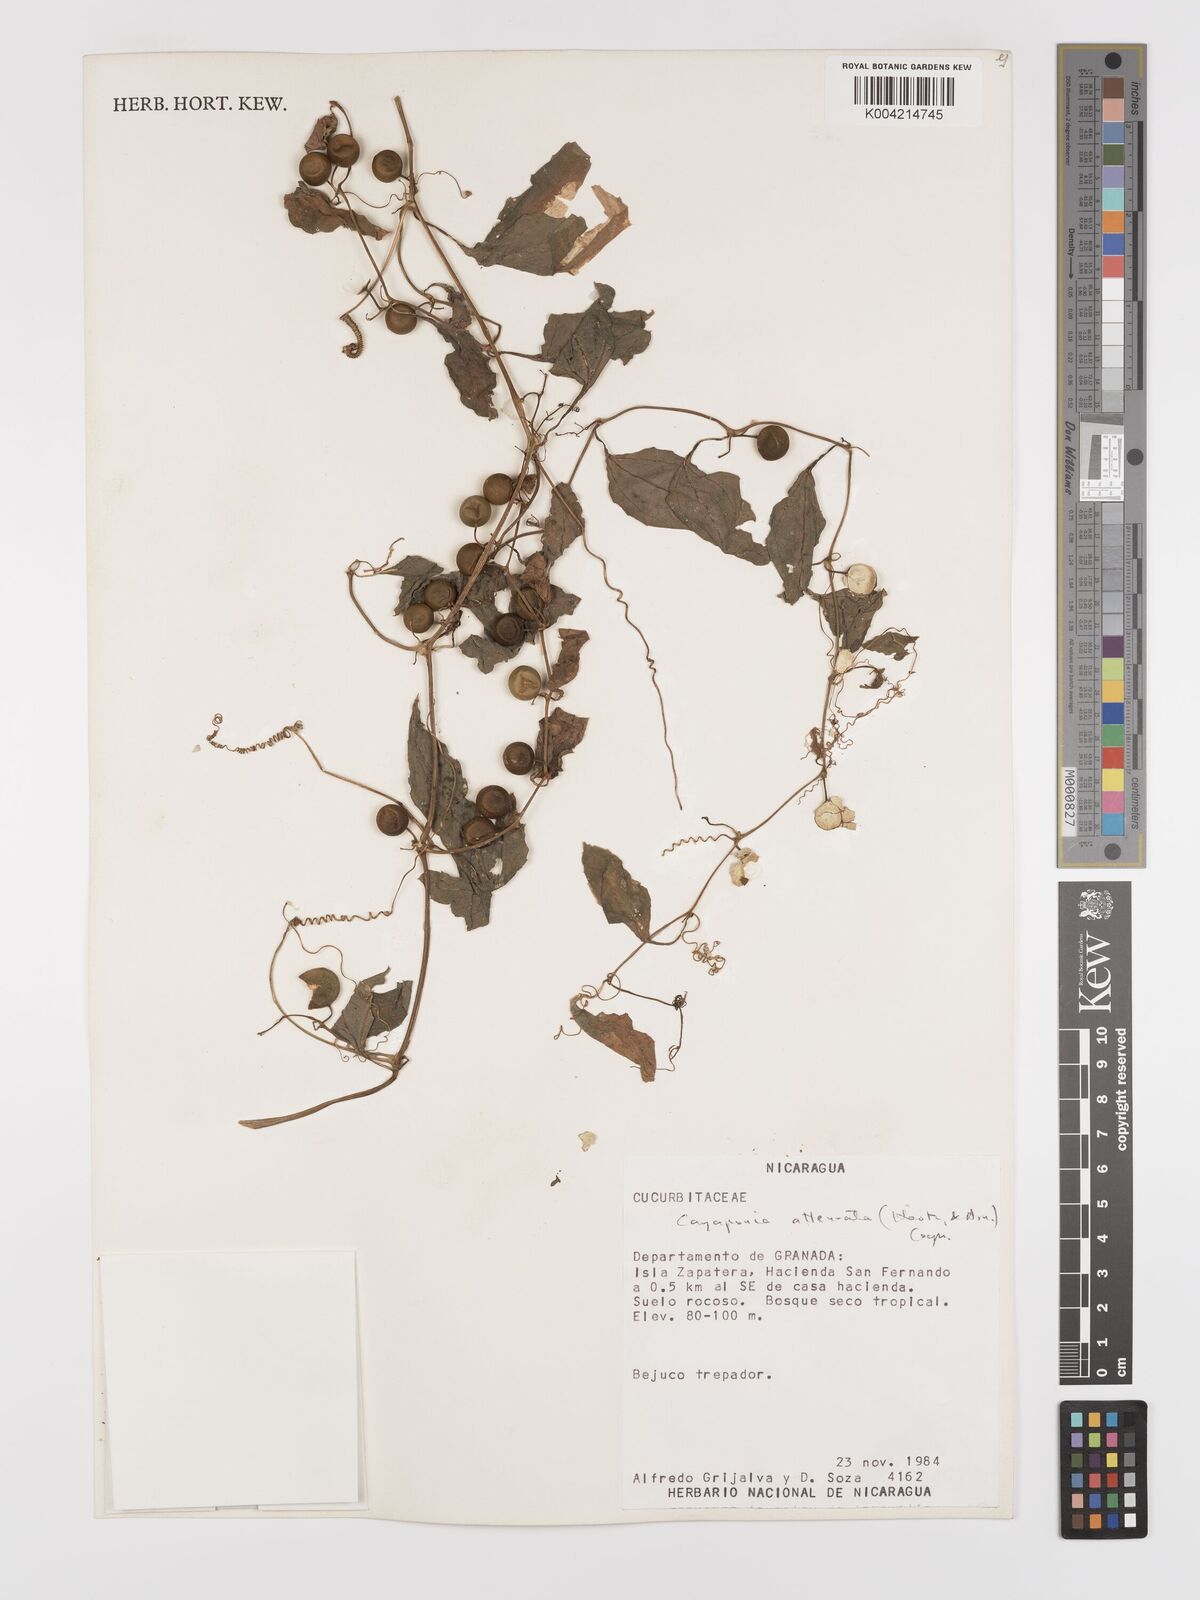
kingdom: Plantae
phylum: Tracheophyta
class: Magnoliopsida
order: Cucurbitales
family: Cucurbitaceae
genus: Cayaponia
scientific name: Cayaponia attenuata
